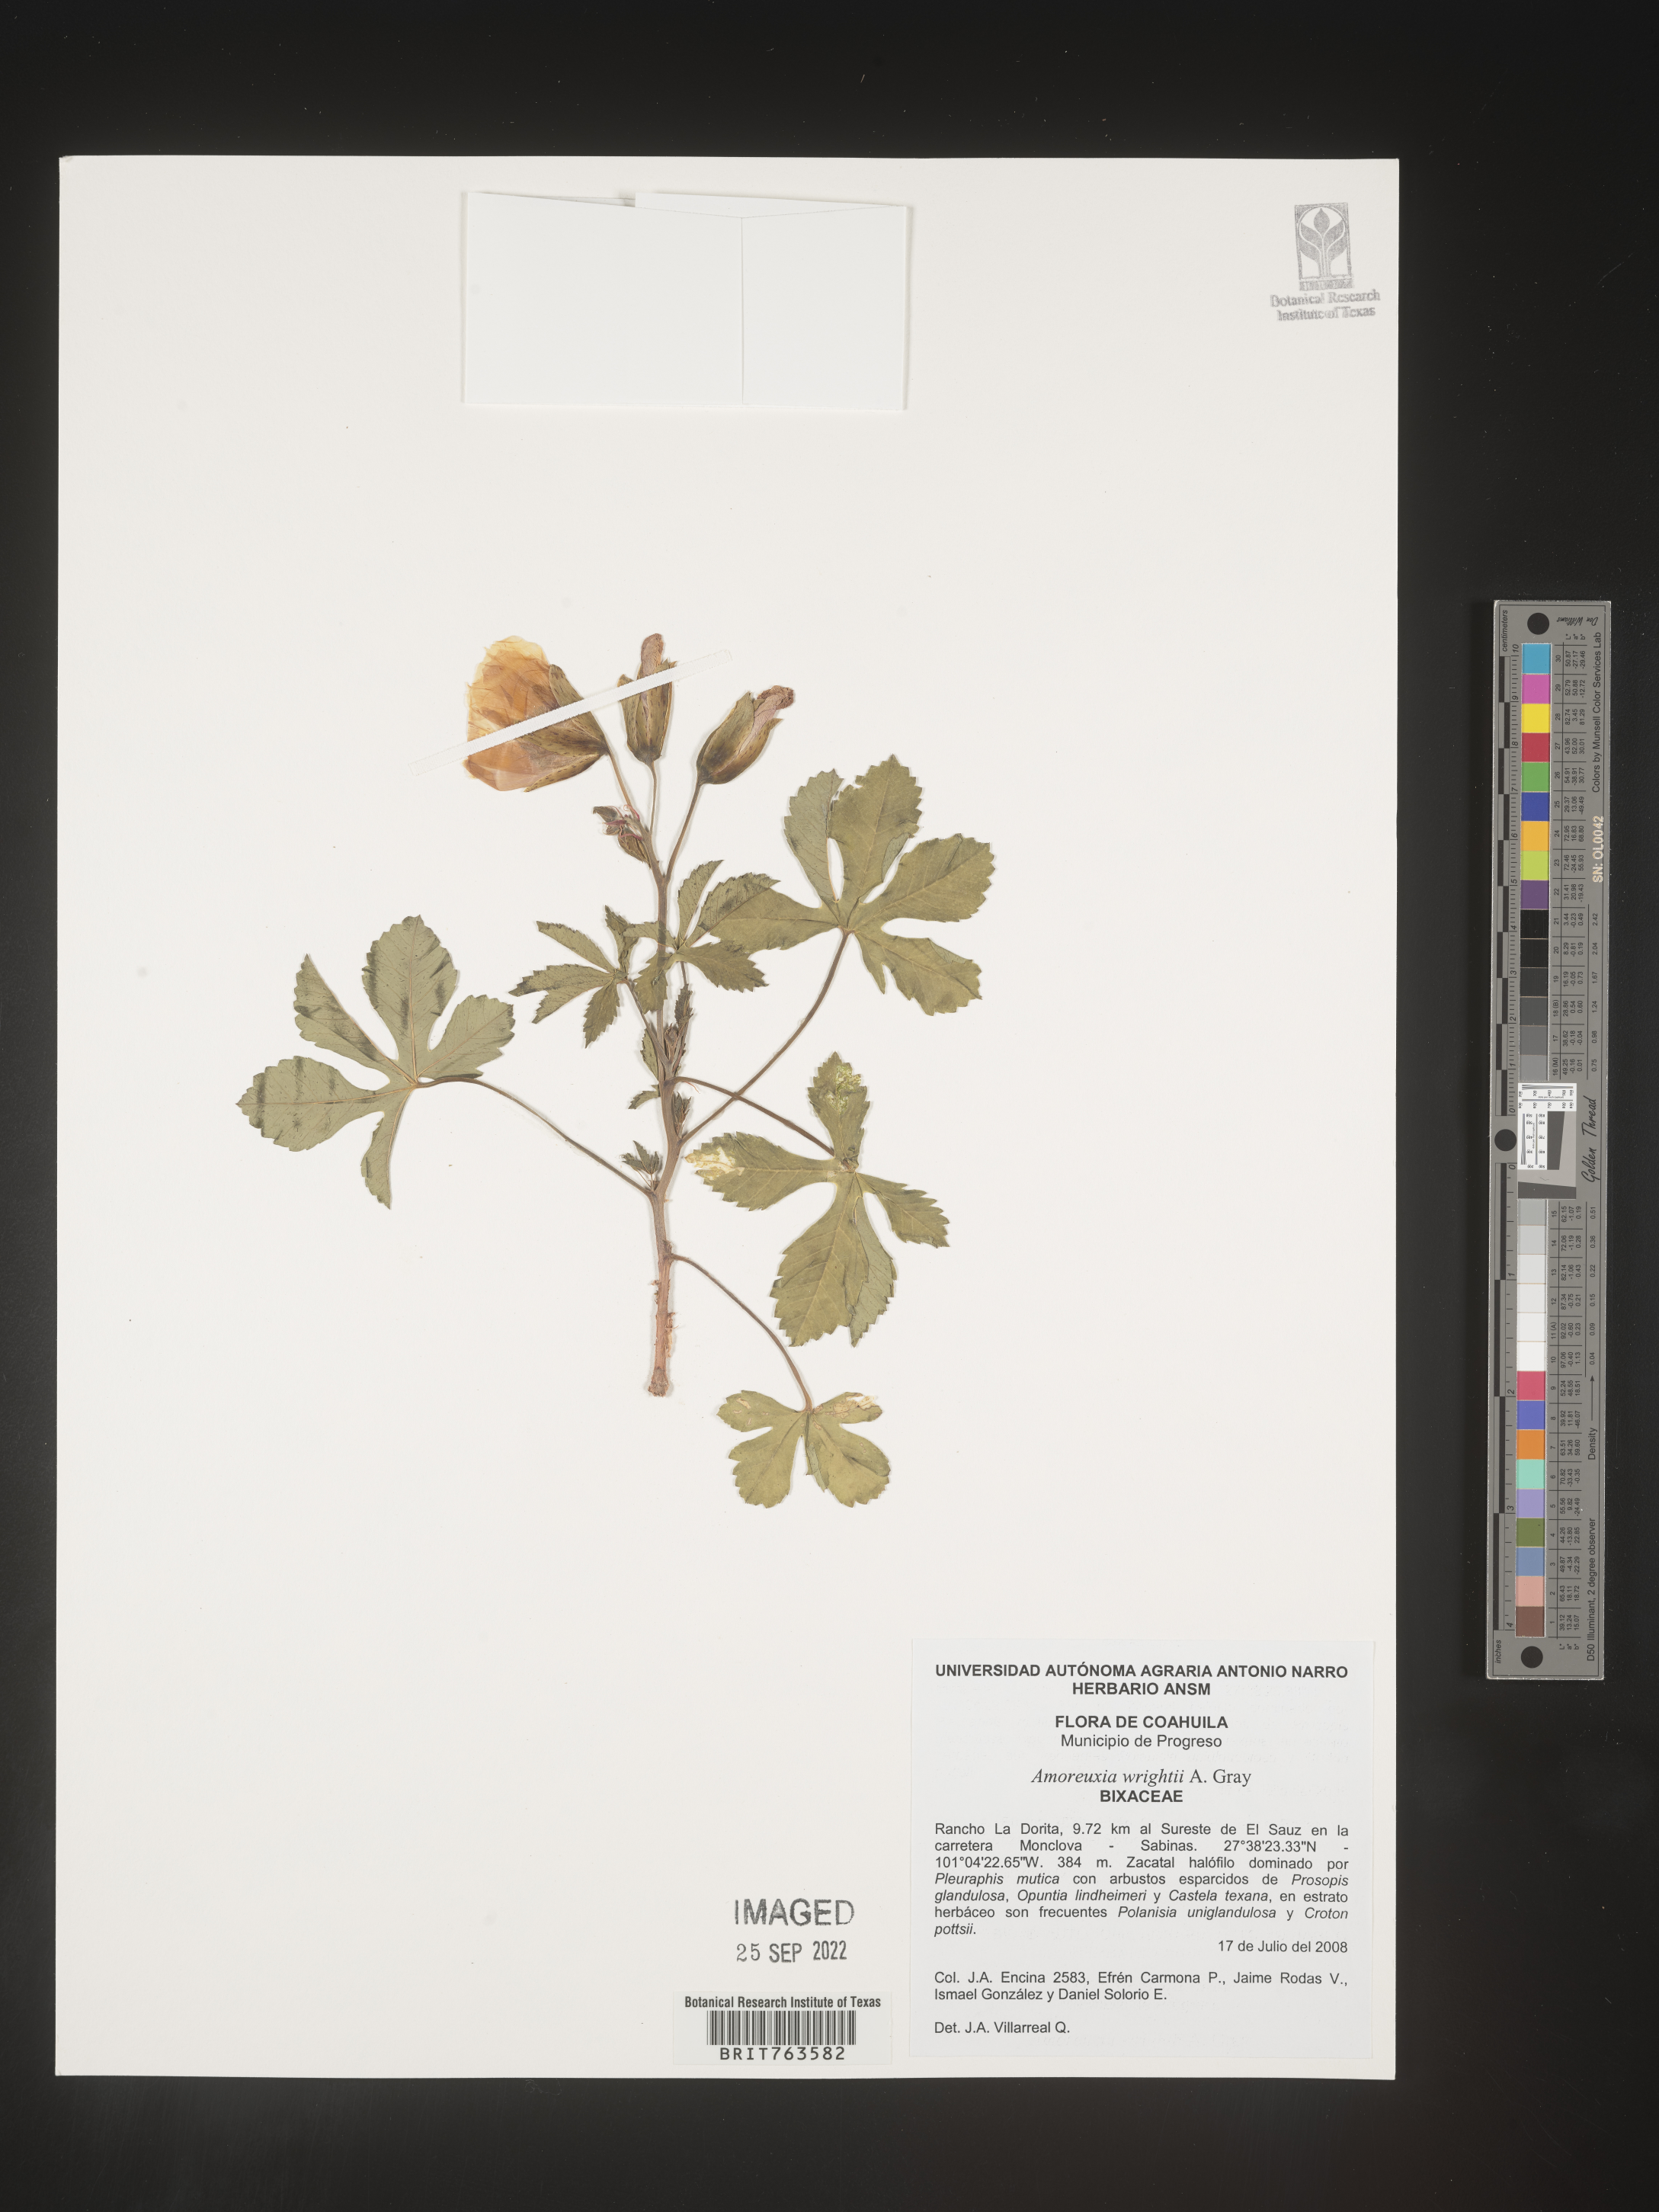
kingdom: Plantae
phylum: Tracheophyta
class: Magnoliopsida
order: Caryophyllales
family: Amaranthaceae
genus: Amoreuxia
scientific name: Amoreuxia
